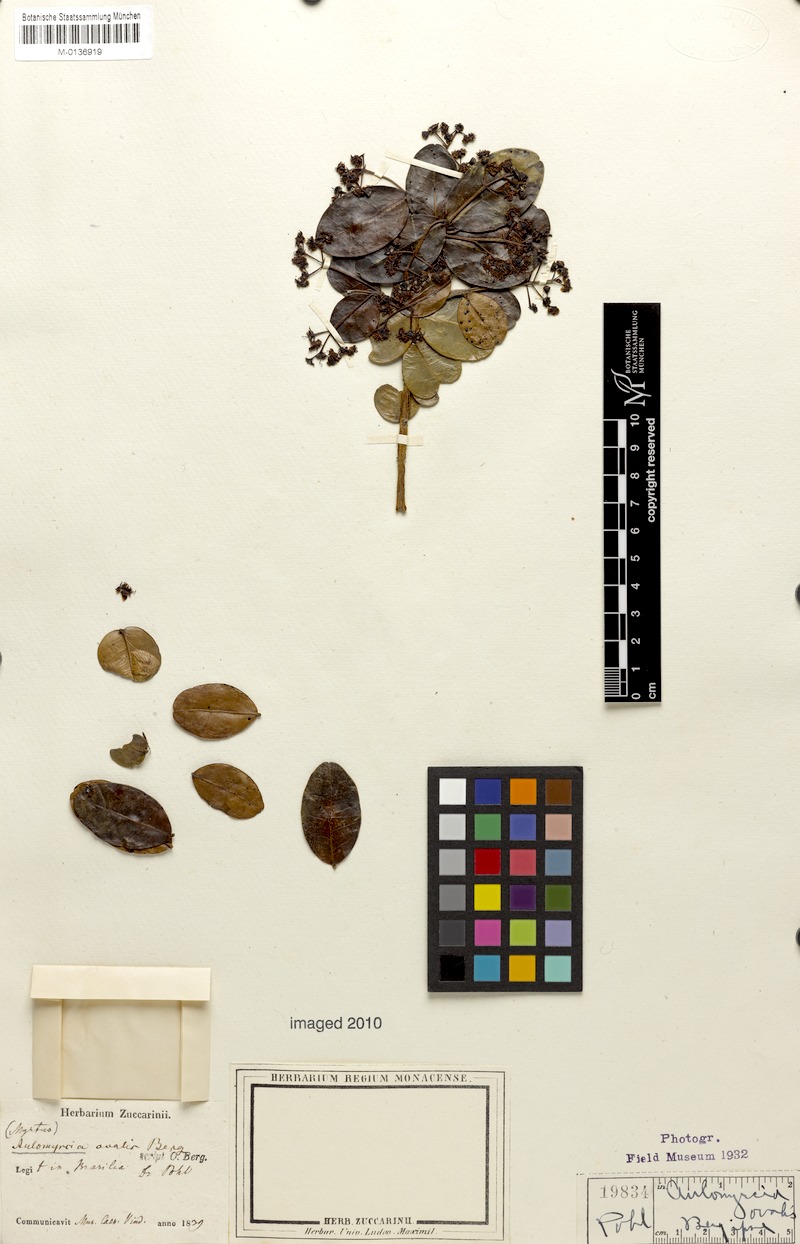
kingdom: Plantae
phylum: Tracheophyta
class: Magnoliopsida
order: Myrtales
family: Myrtaceae
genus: Myrcia
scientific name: Myrcia ovalis
